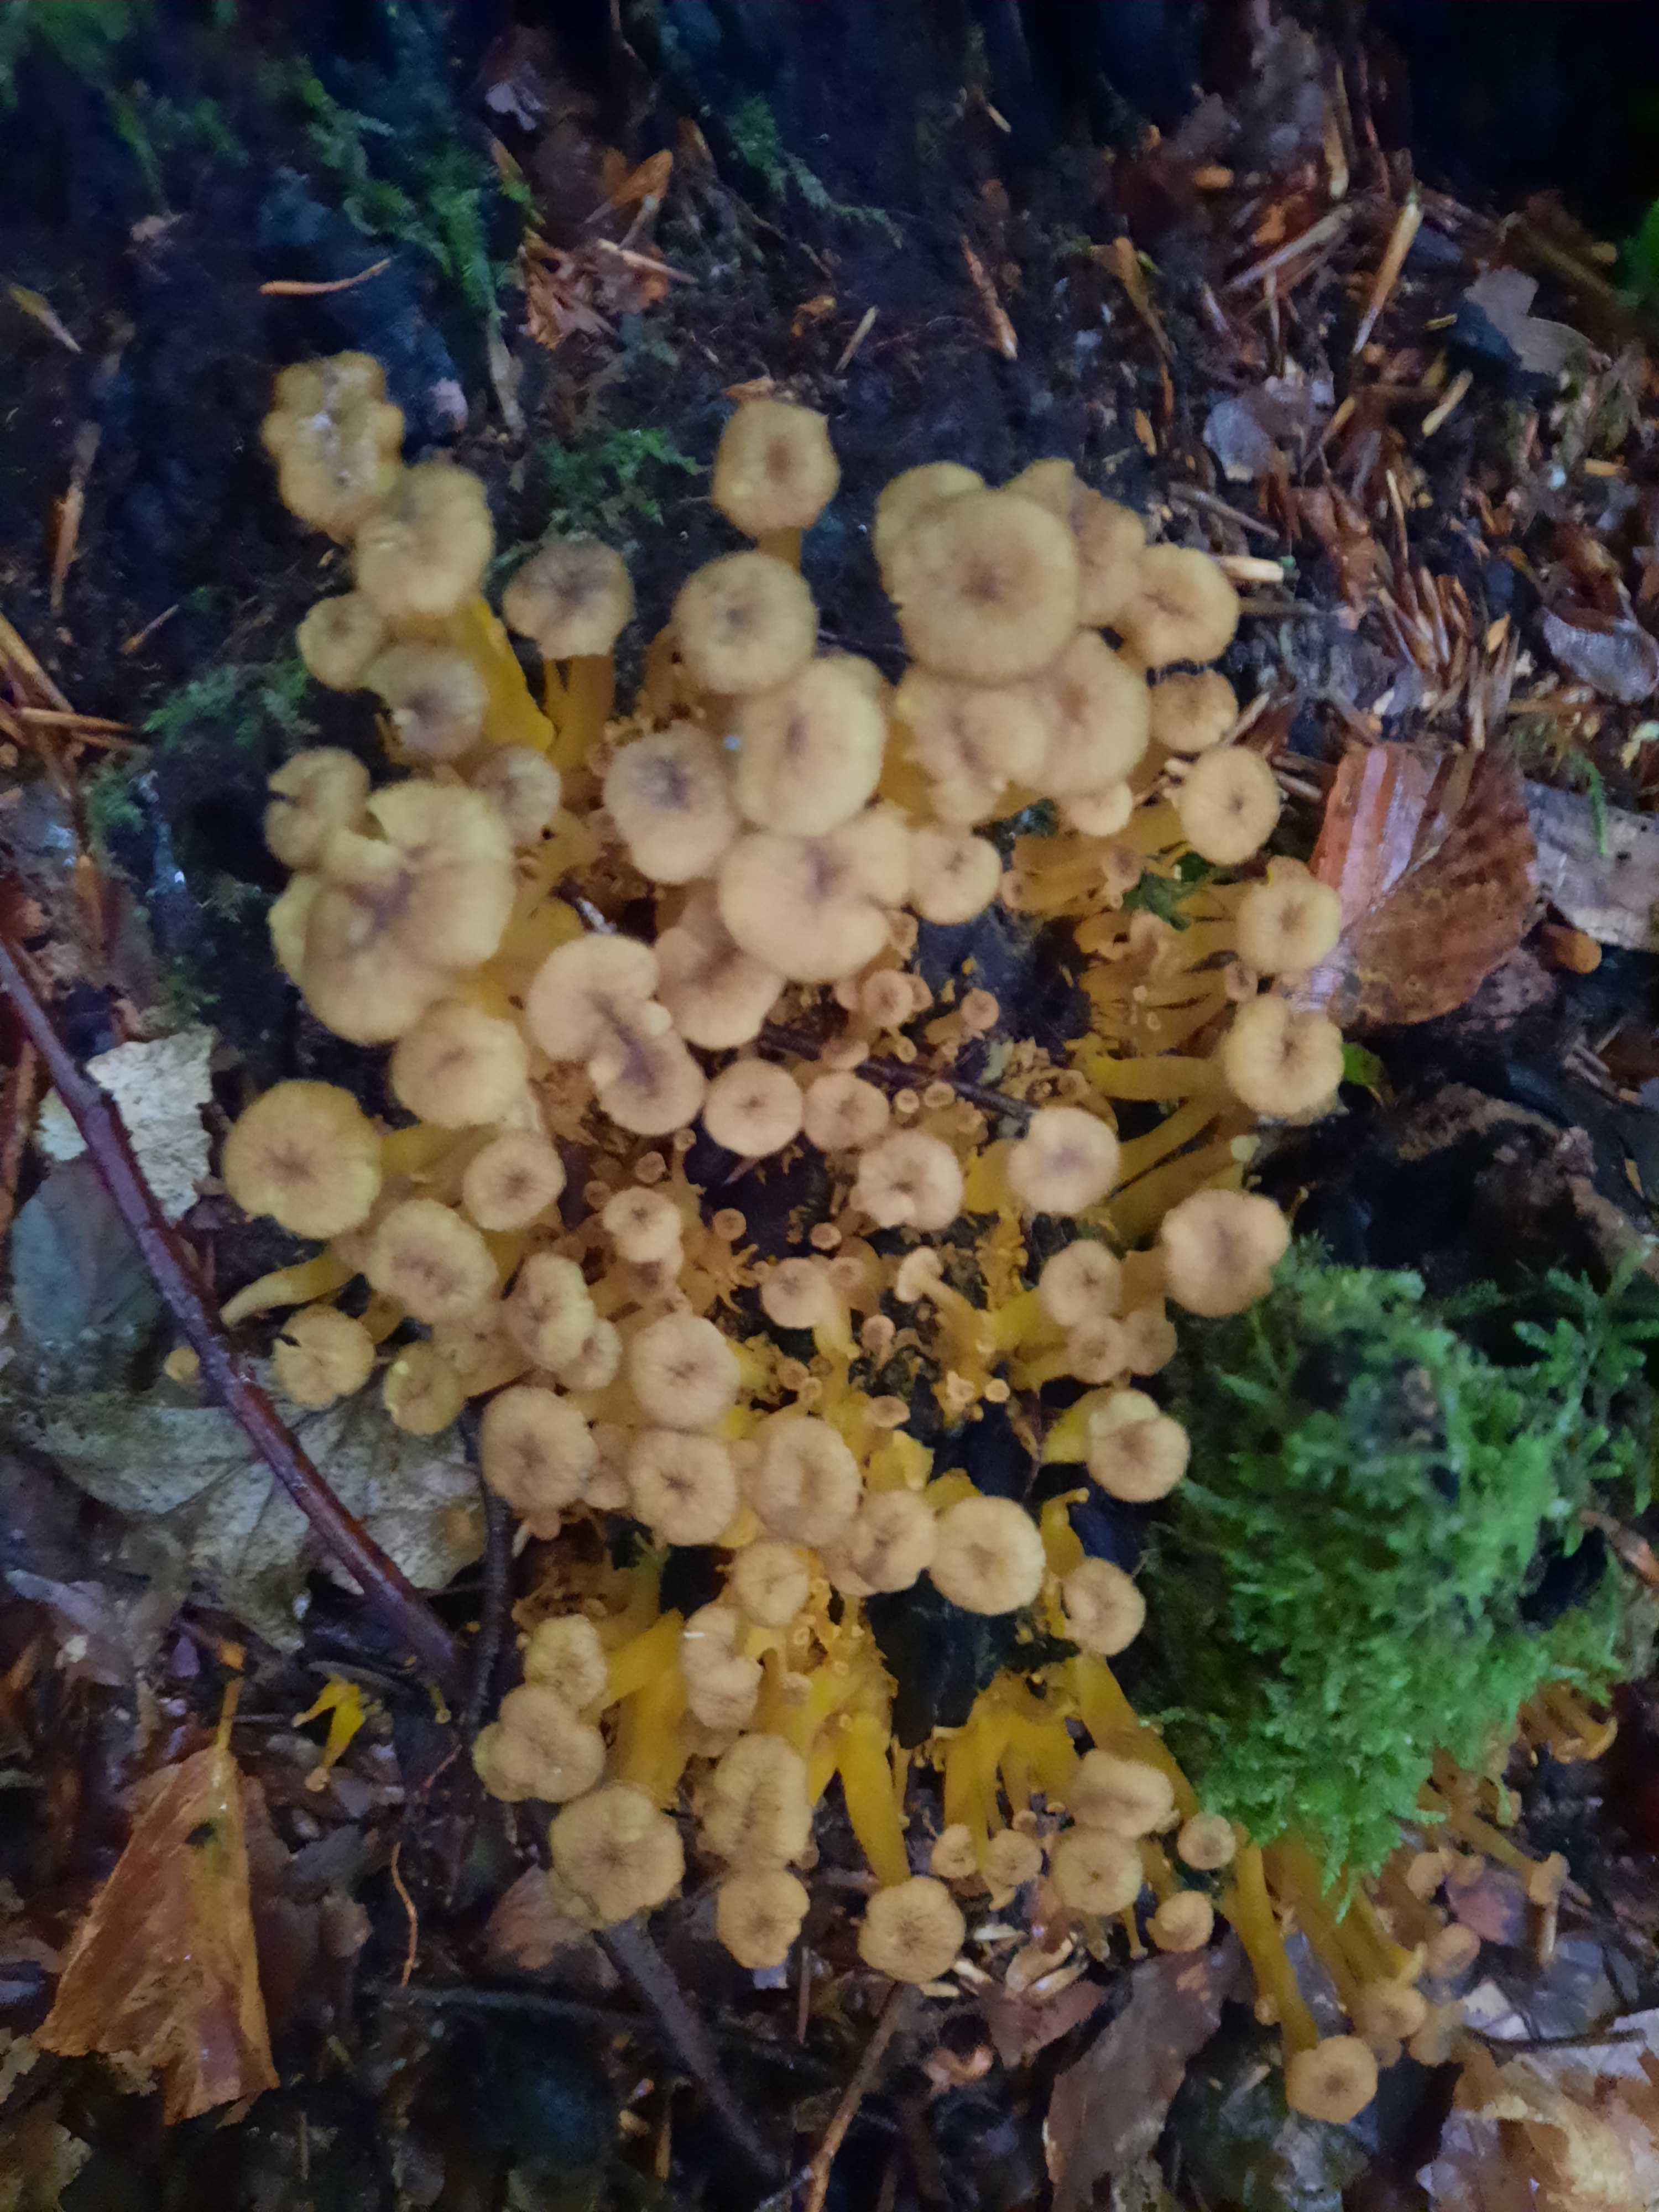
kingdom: Fungi
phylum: Basidiomycota
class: Agaricomycetes
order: Cantharellales
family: Hydnaceae
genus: Craterellus
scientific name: Craterellus tubaeformis
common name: tragt-kantarel
